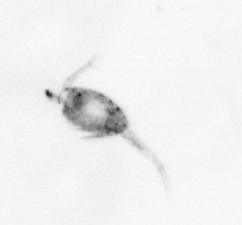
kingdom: Animalia
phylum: Arthropoda
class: Copepoda
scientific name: Copepoda
